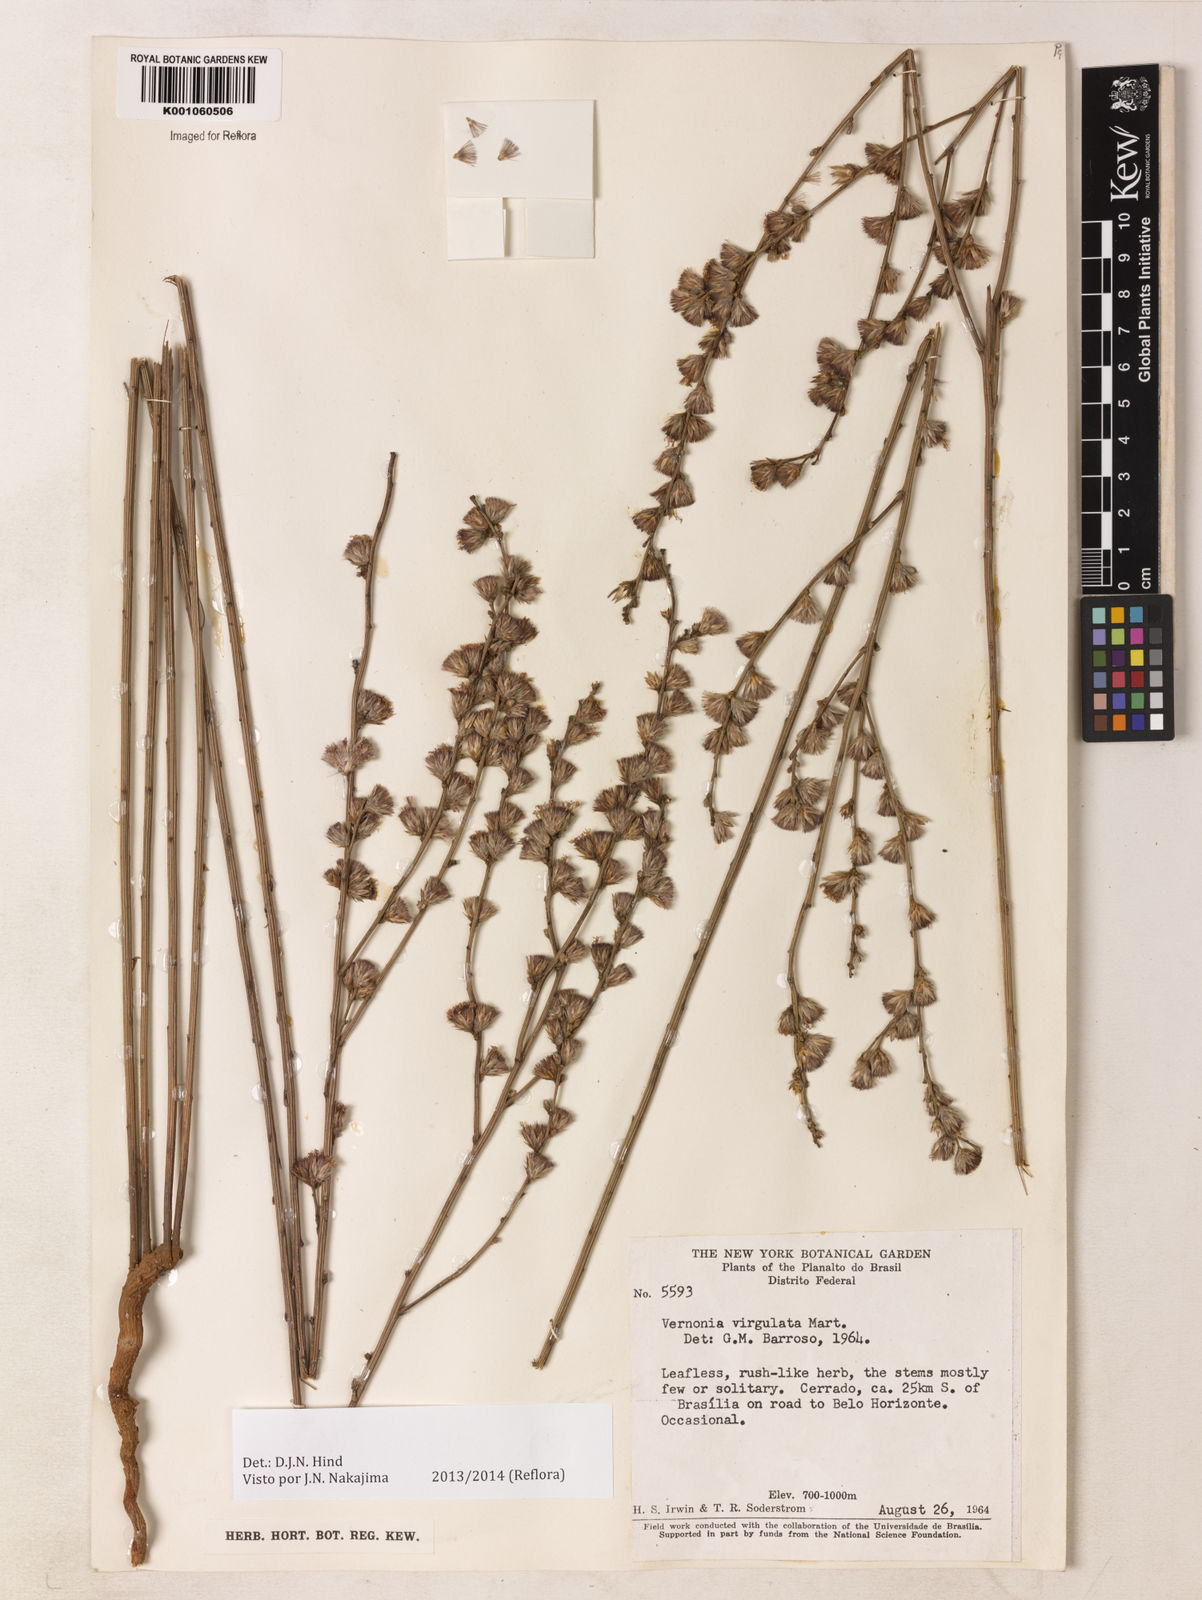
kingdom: Plantae
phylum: Tracheophyta
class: Magnoliopsida
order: Asterales
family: Asteraceae
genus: Lessingianthus
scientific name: Lessingianthus virgulatus
